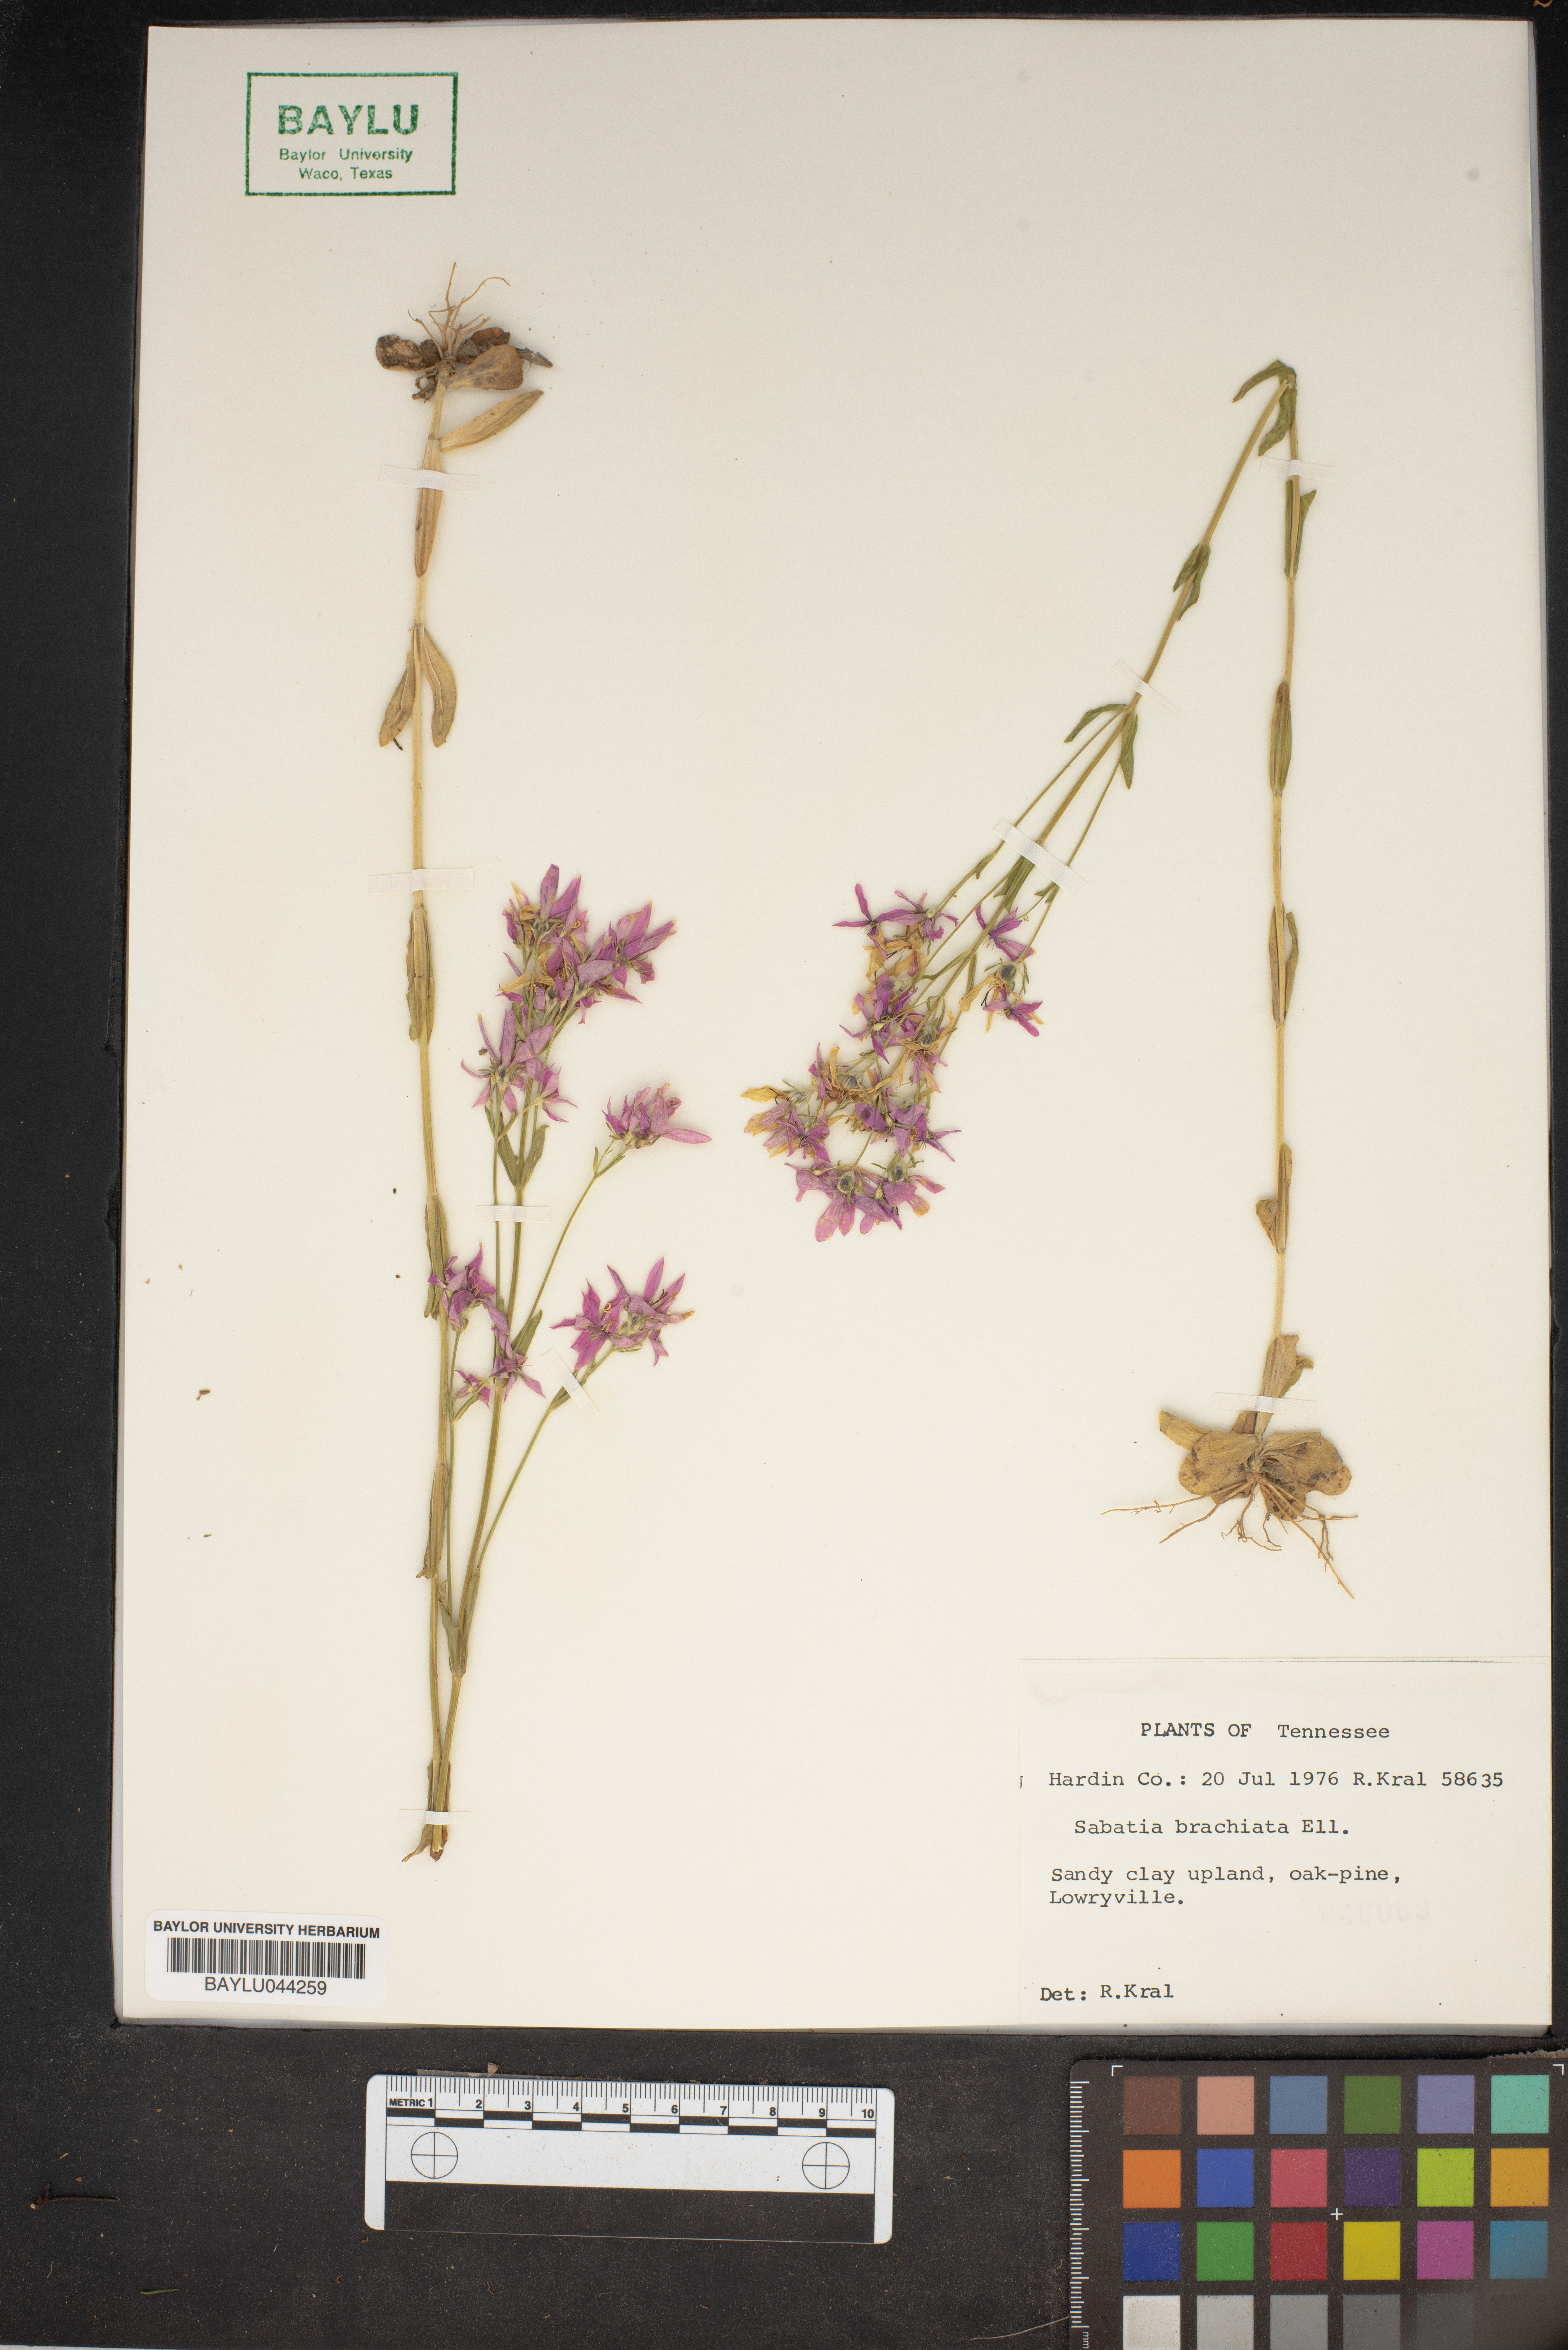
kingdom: Plantae
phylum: Tracheophyta
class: Magnoliopsida
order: Gentianales
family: Gentianaceae
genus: Sabatia
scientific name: Sabatia brachiata
